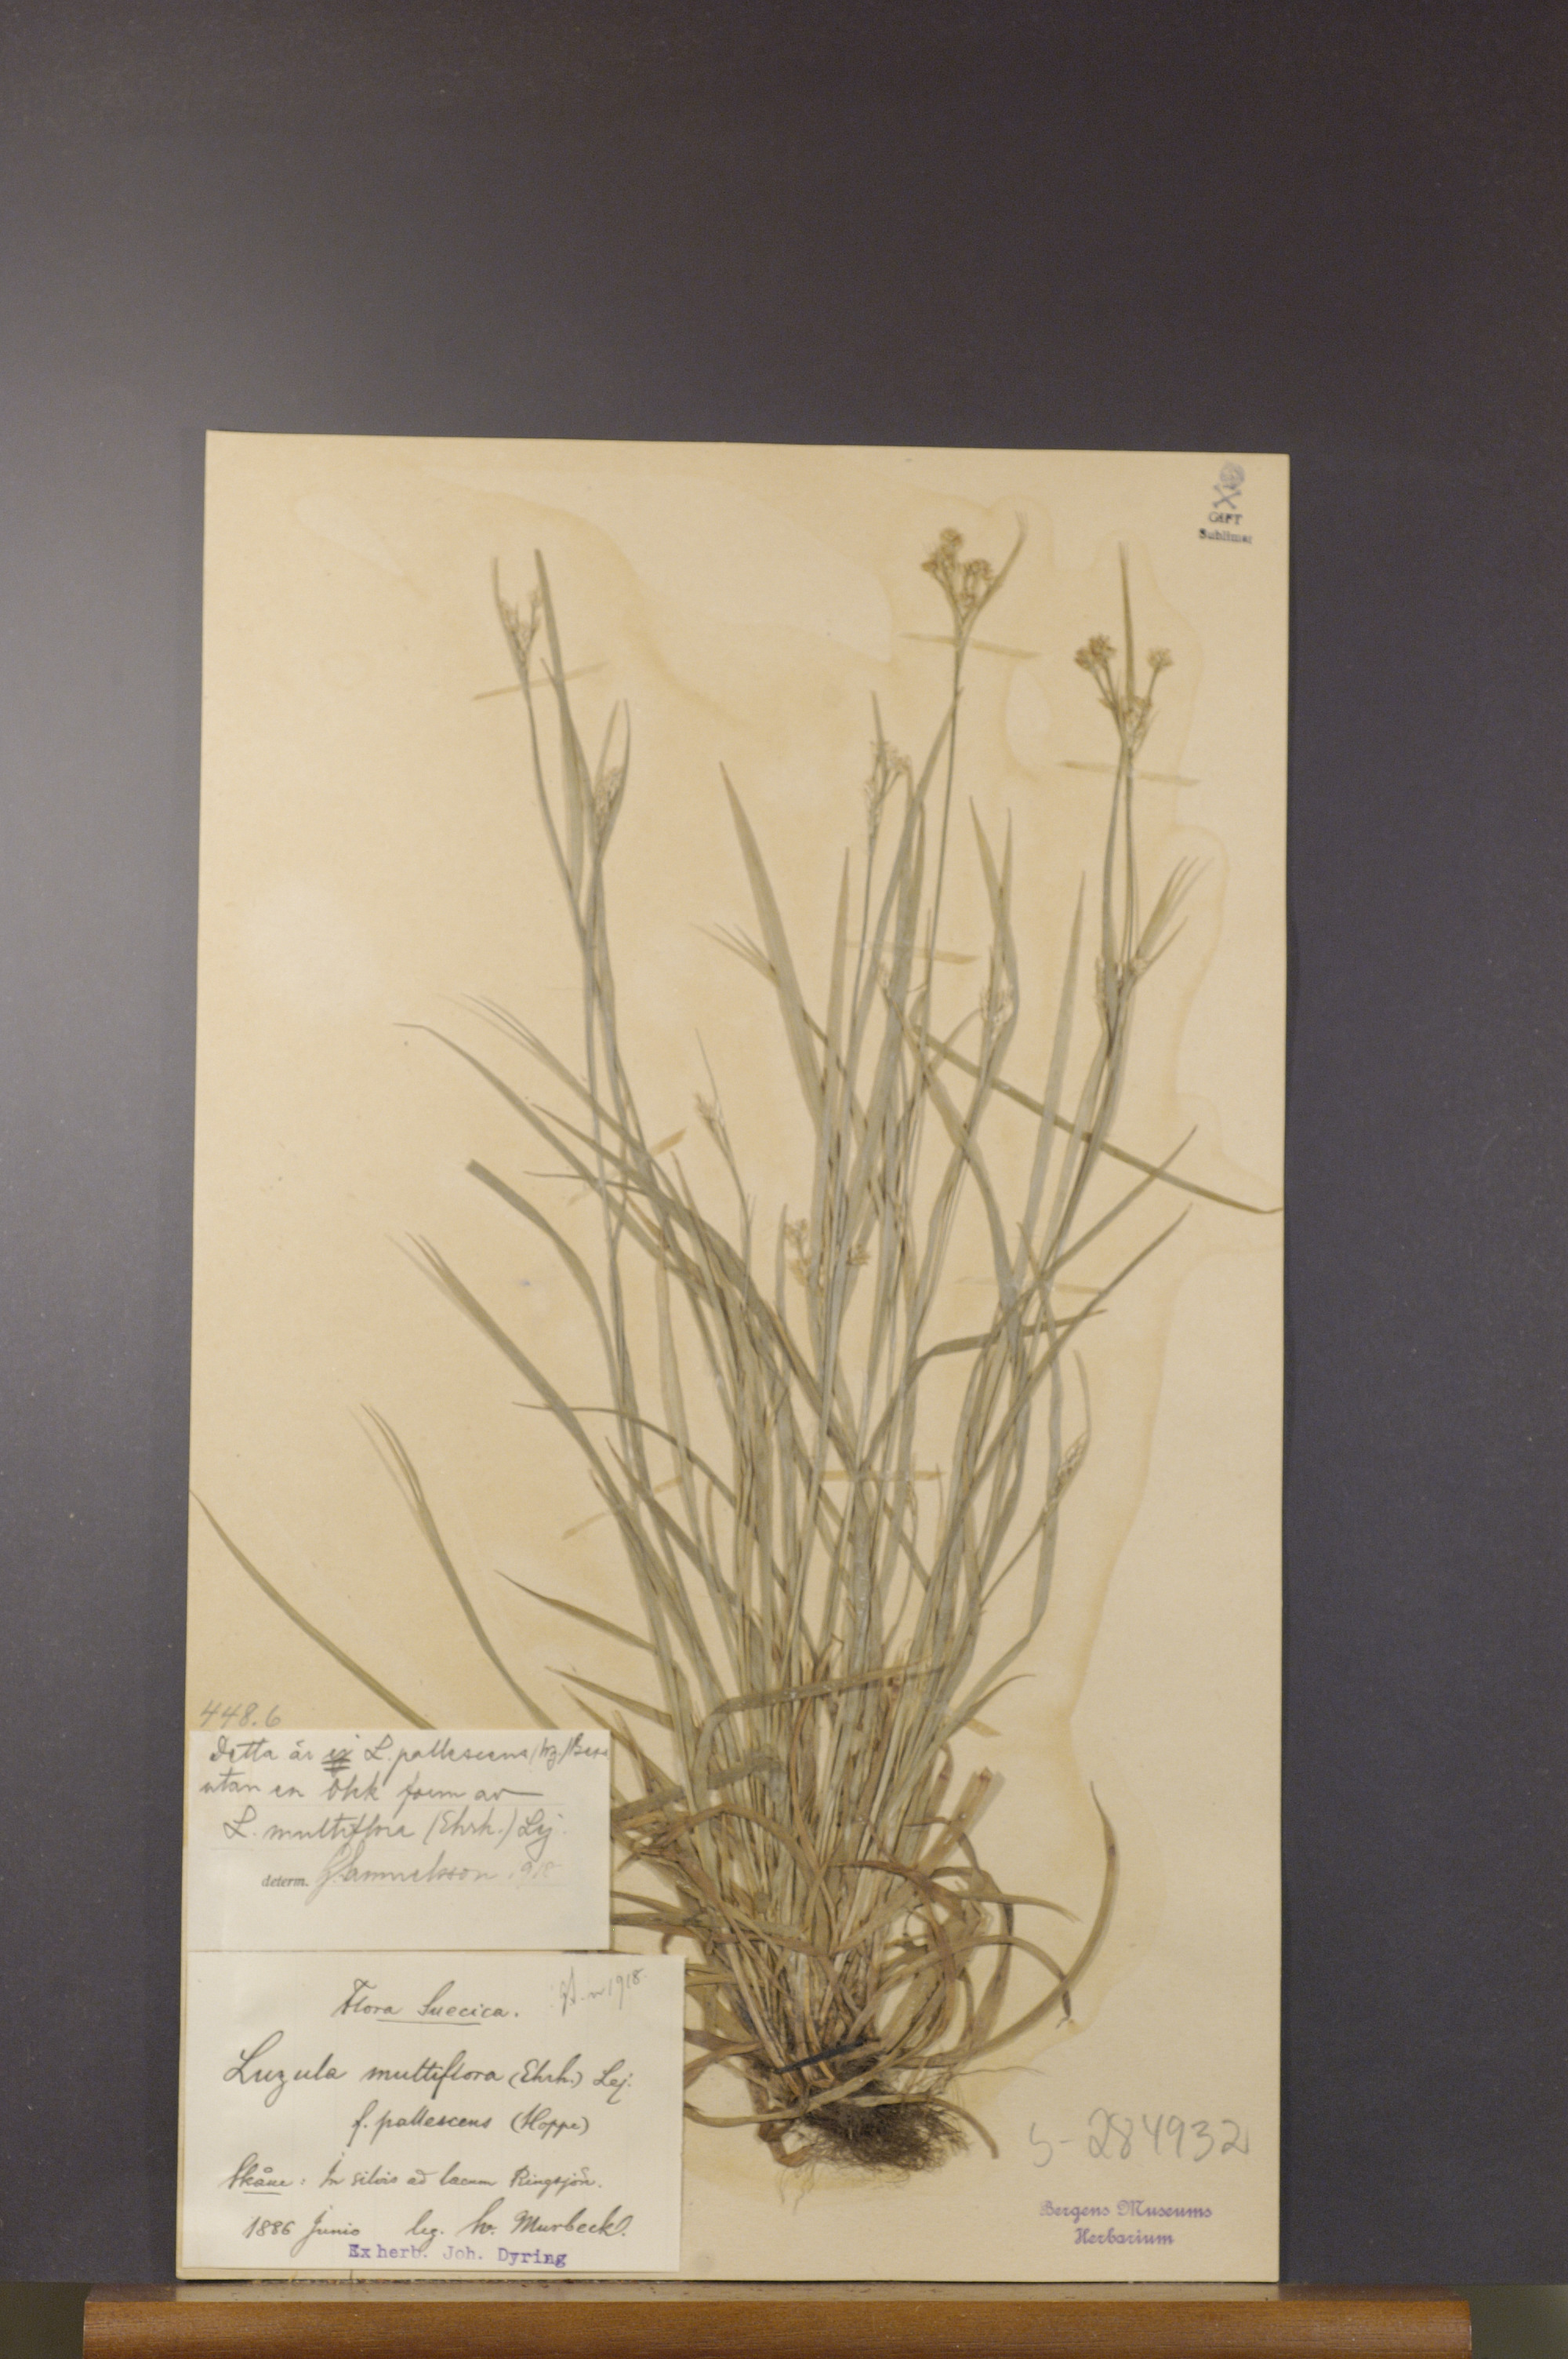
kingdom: Plantae
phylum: Tracheophyta
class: Liliopsida
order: Poales
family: Juncaceae
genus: Luzula
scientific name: Luzula multiflora
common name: Heath wood-rush
